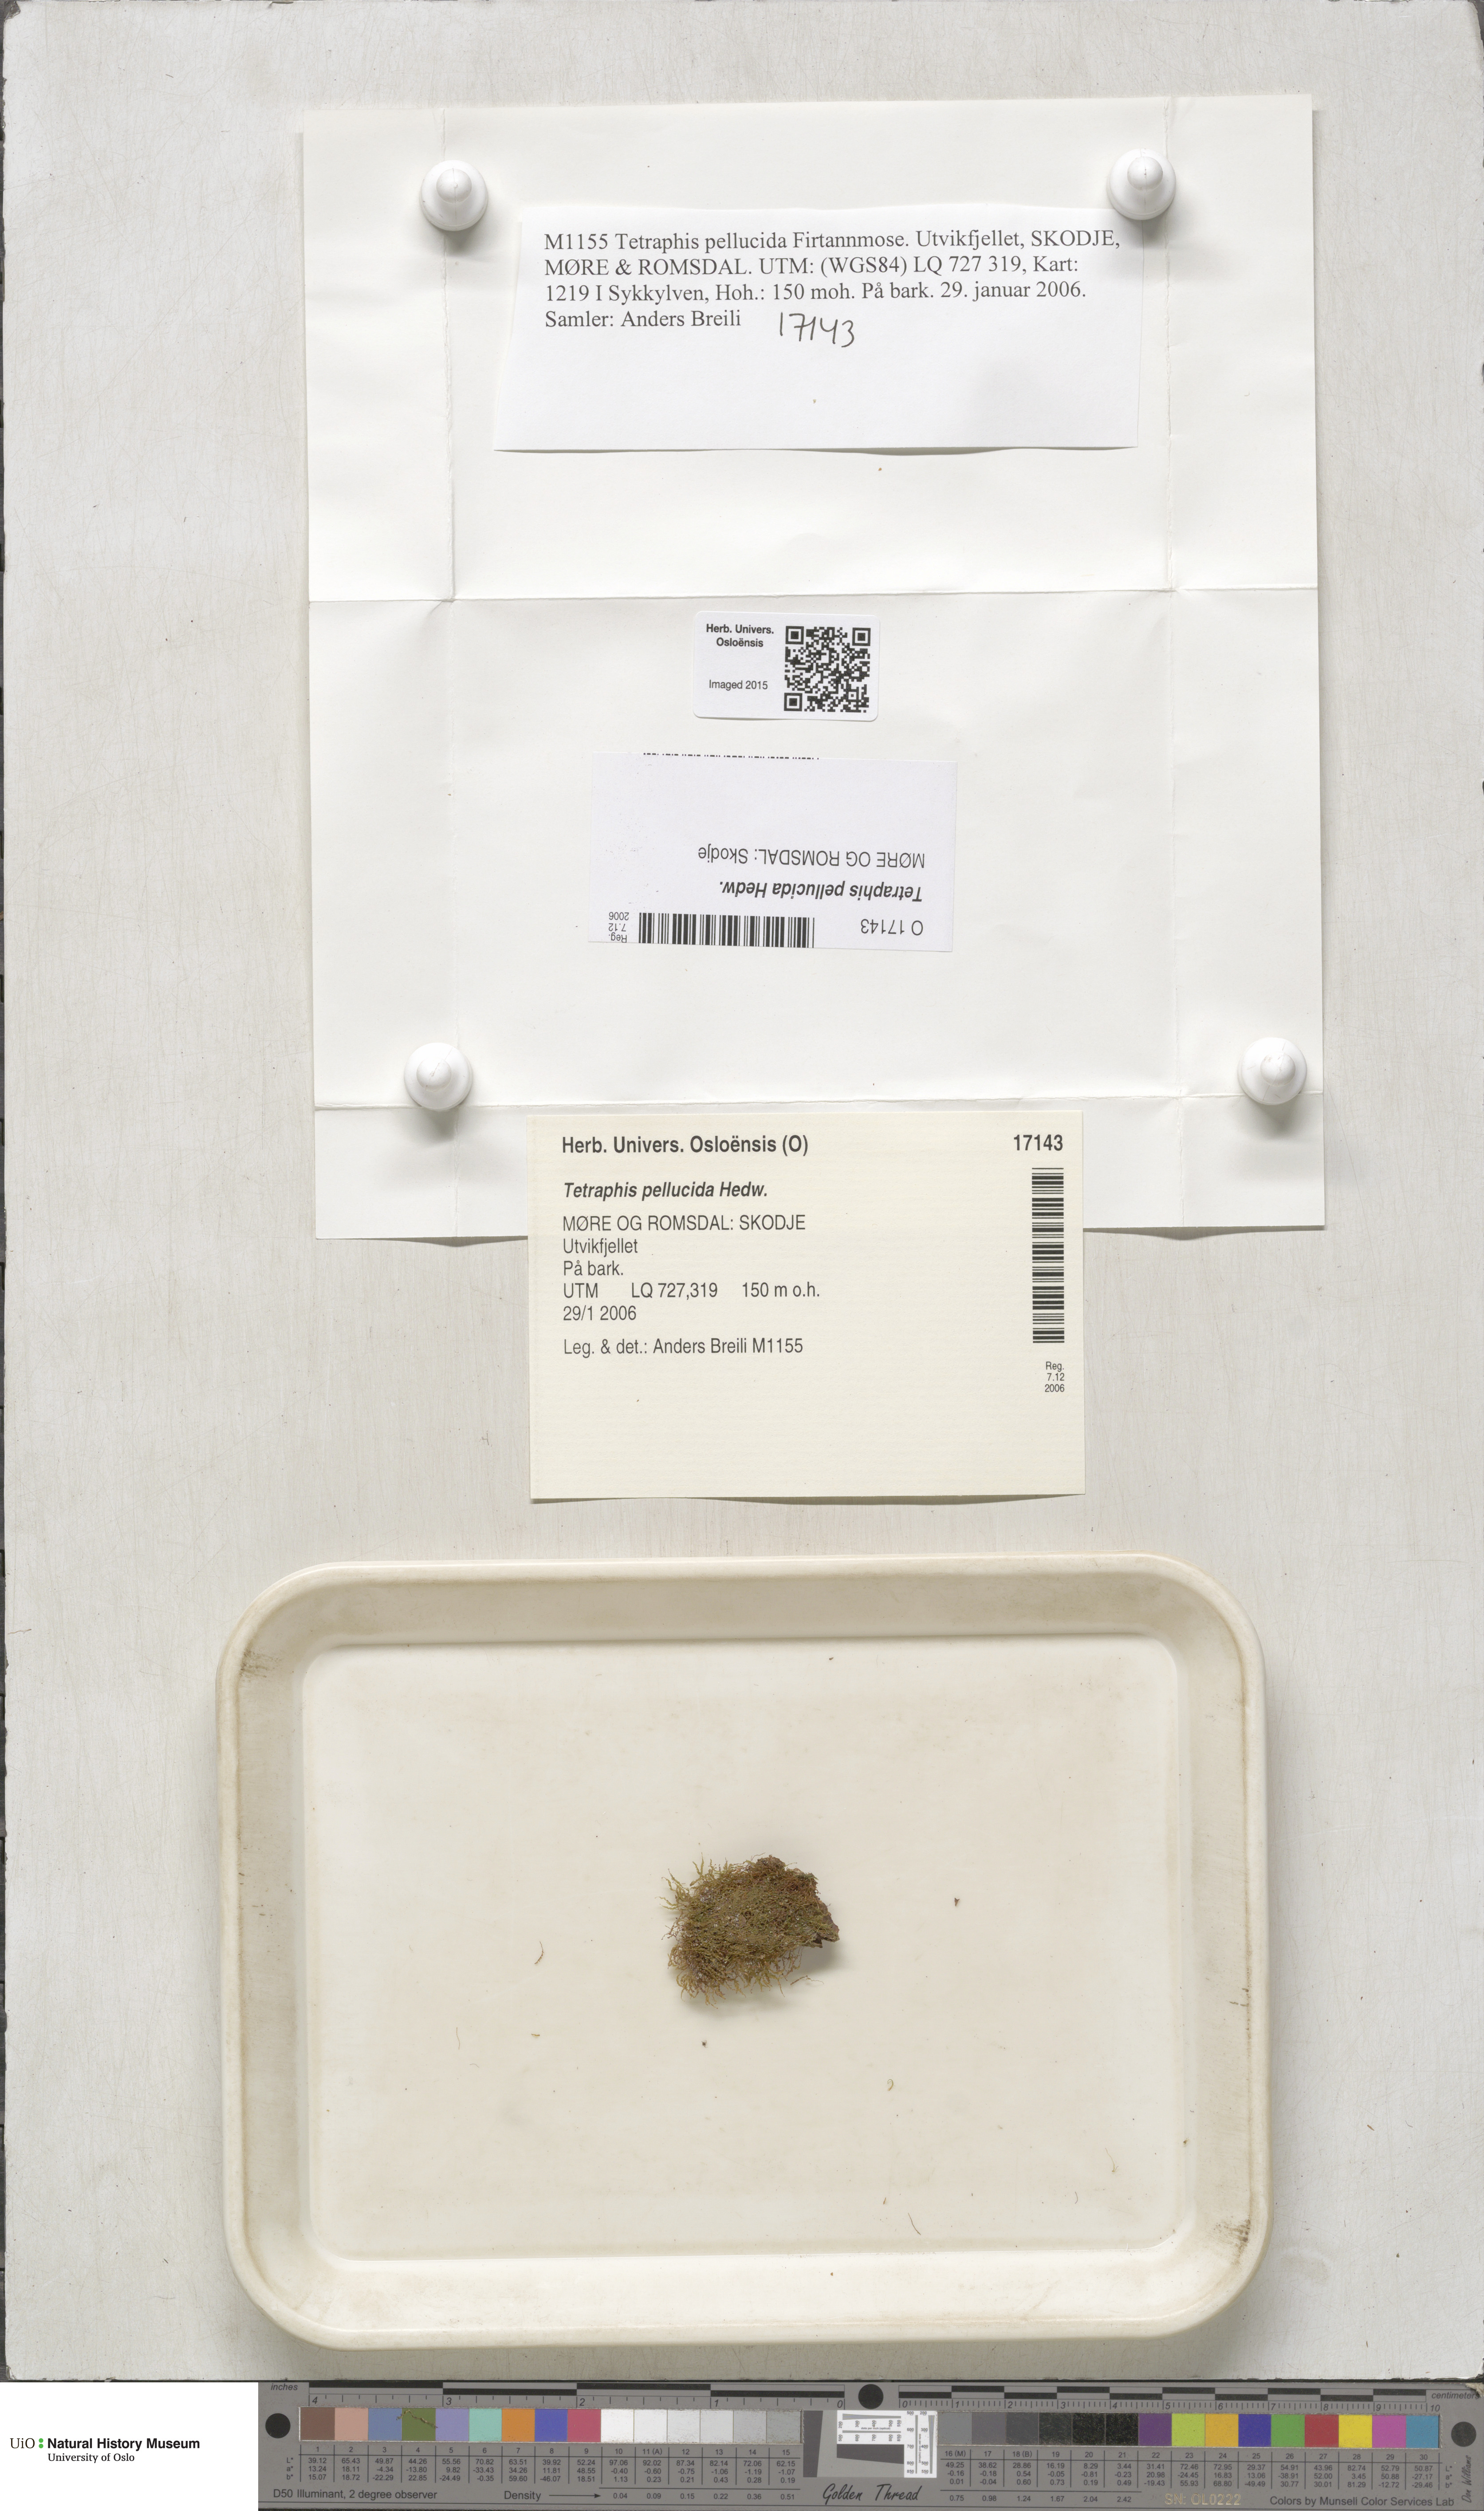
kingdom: Plantae
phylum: Bryophyta
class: Polytrichopsida
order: Tetraphidales
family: Tetraphidaceae
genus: Tetraphis
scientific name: Tetraphis pellucida
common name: Common four-toothed moss
